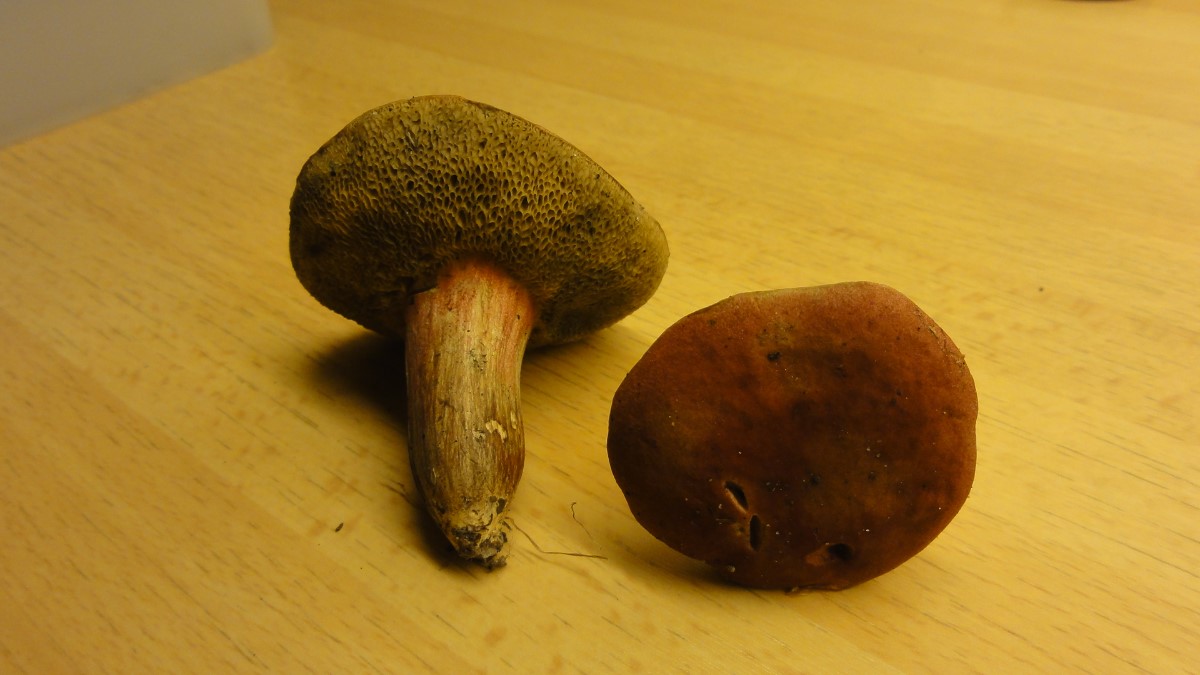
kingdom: Fungi
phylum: Basidiomycota
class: Agaricomycetes
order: Boletales
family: Boletaceae
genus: Hortiboletus
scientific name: Hortiboletus rubellus
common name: blodrød rørhat
